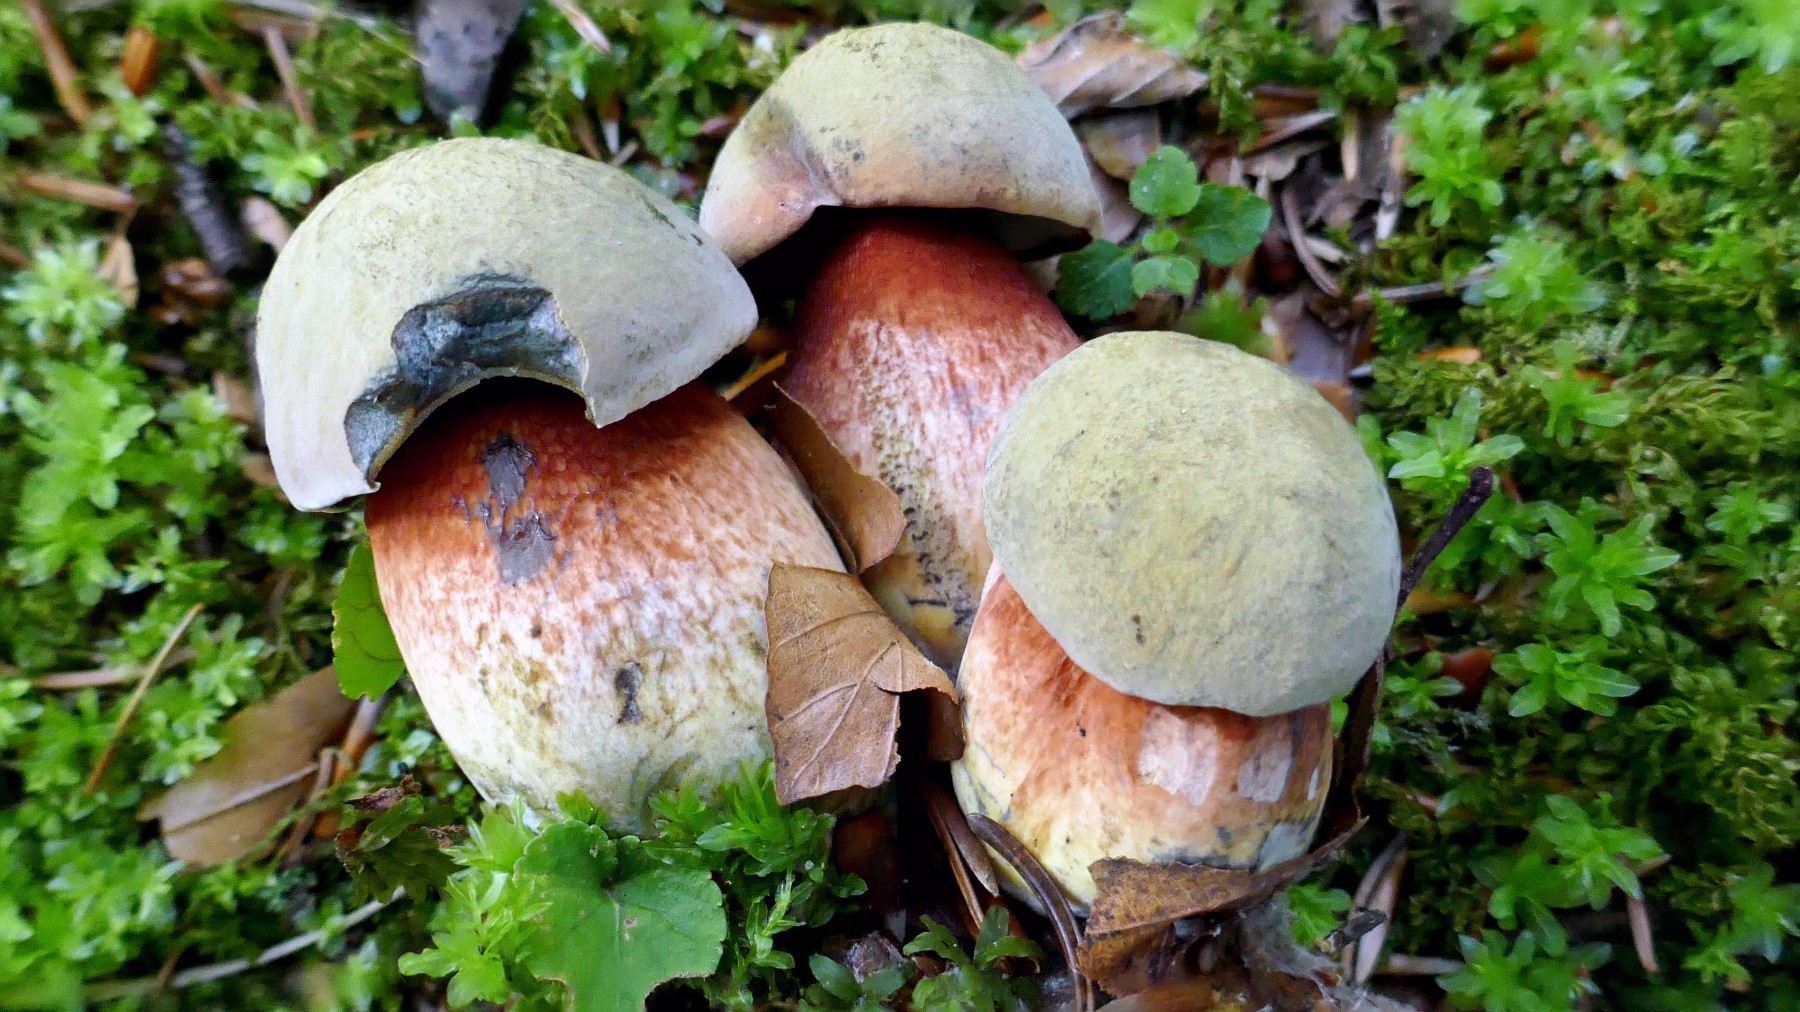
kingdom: Fungi
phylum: Basidiomycota
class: Agaricomycetes
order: Boletales
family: Boletaceae
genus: Suillellus
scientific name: Suillellus luridus
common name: netstokket indigorørhat
